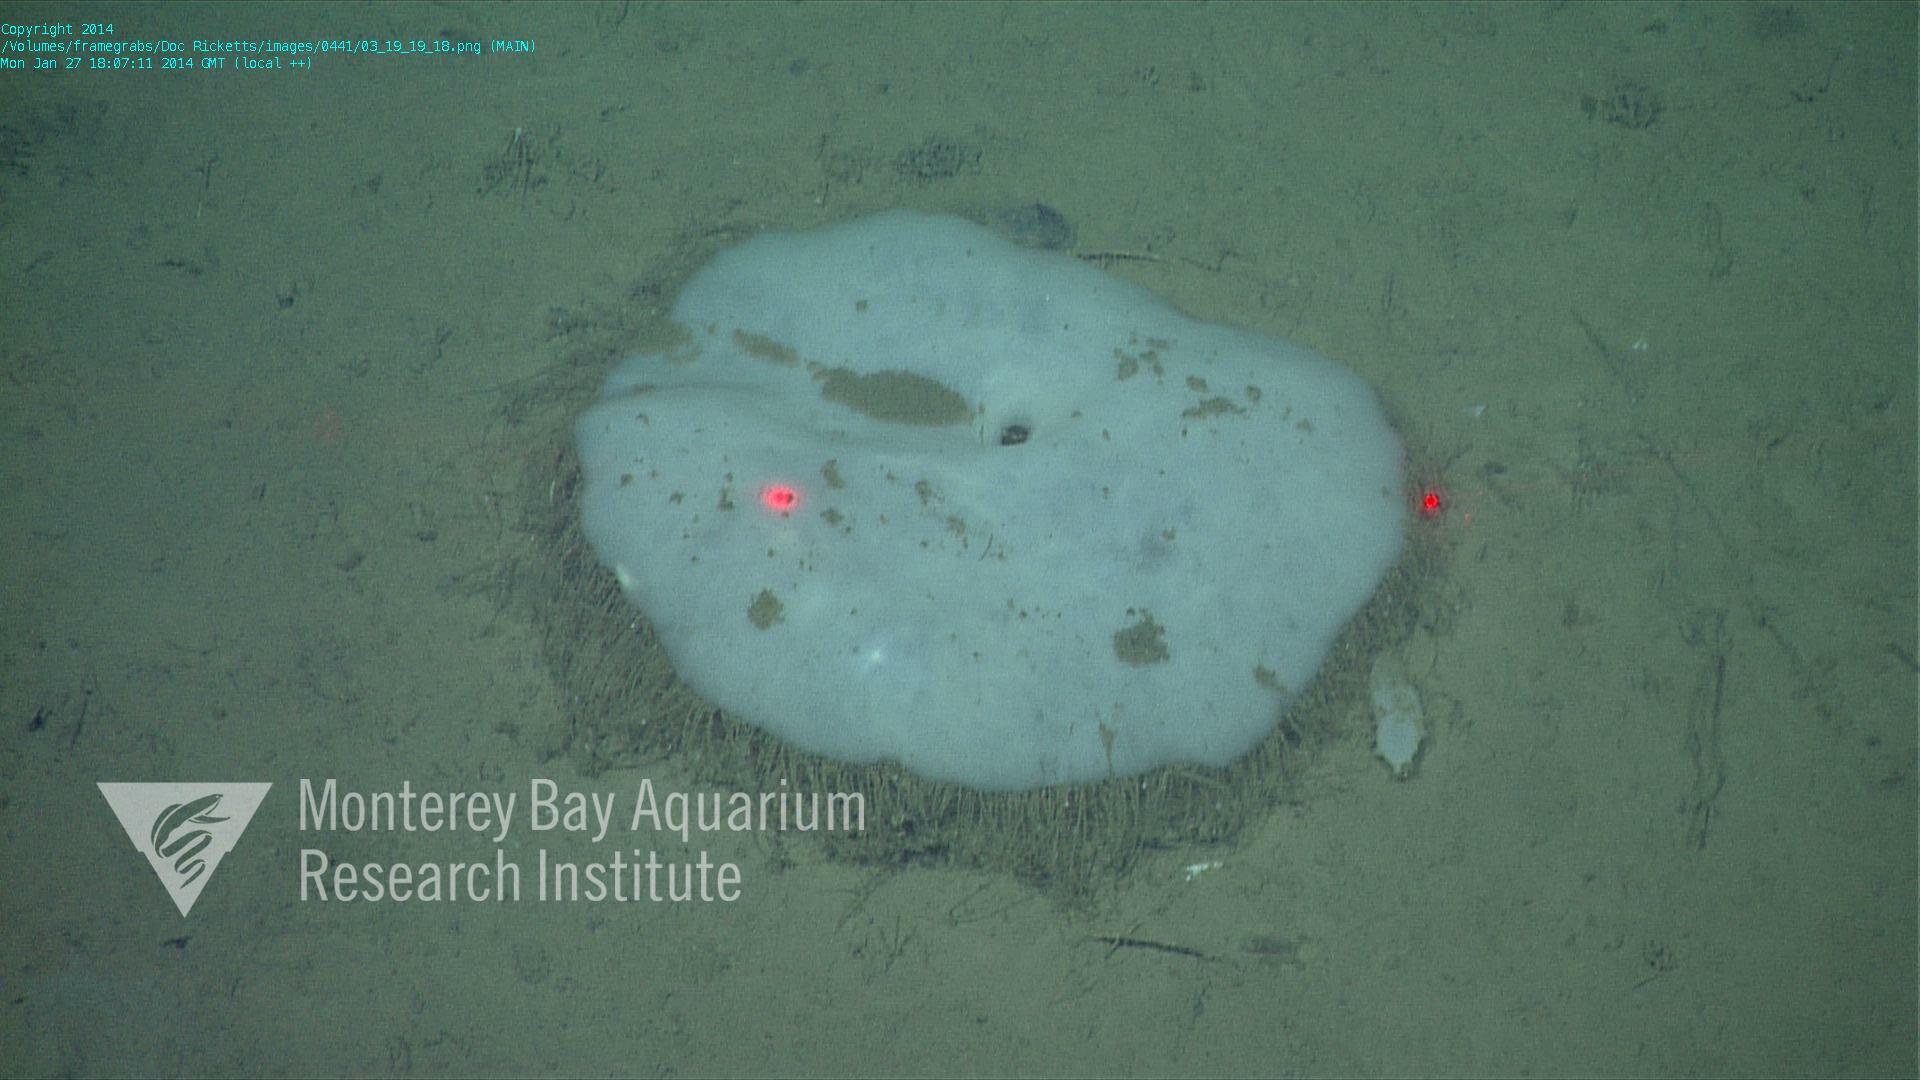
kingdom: Animalia
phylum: Porifera
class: Hexactinellida
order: Lyssacinosida
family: Rossellidae
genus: Bathydorus
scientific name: Bathydorus laniger
